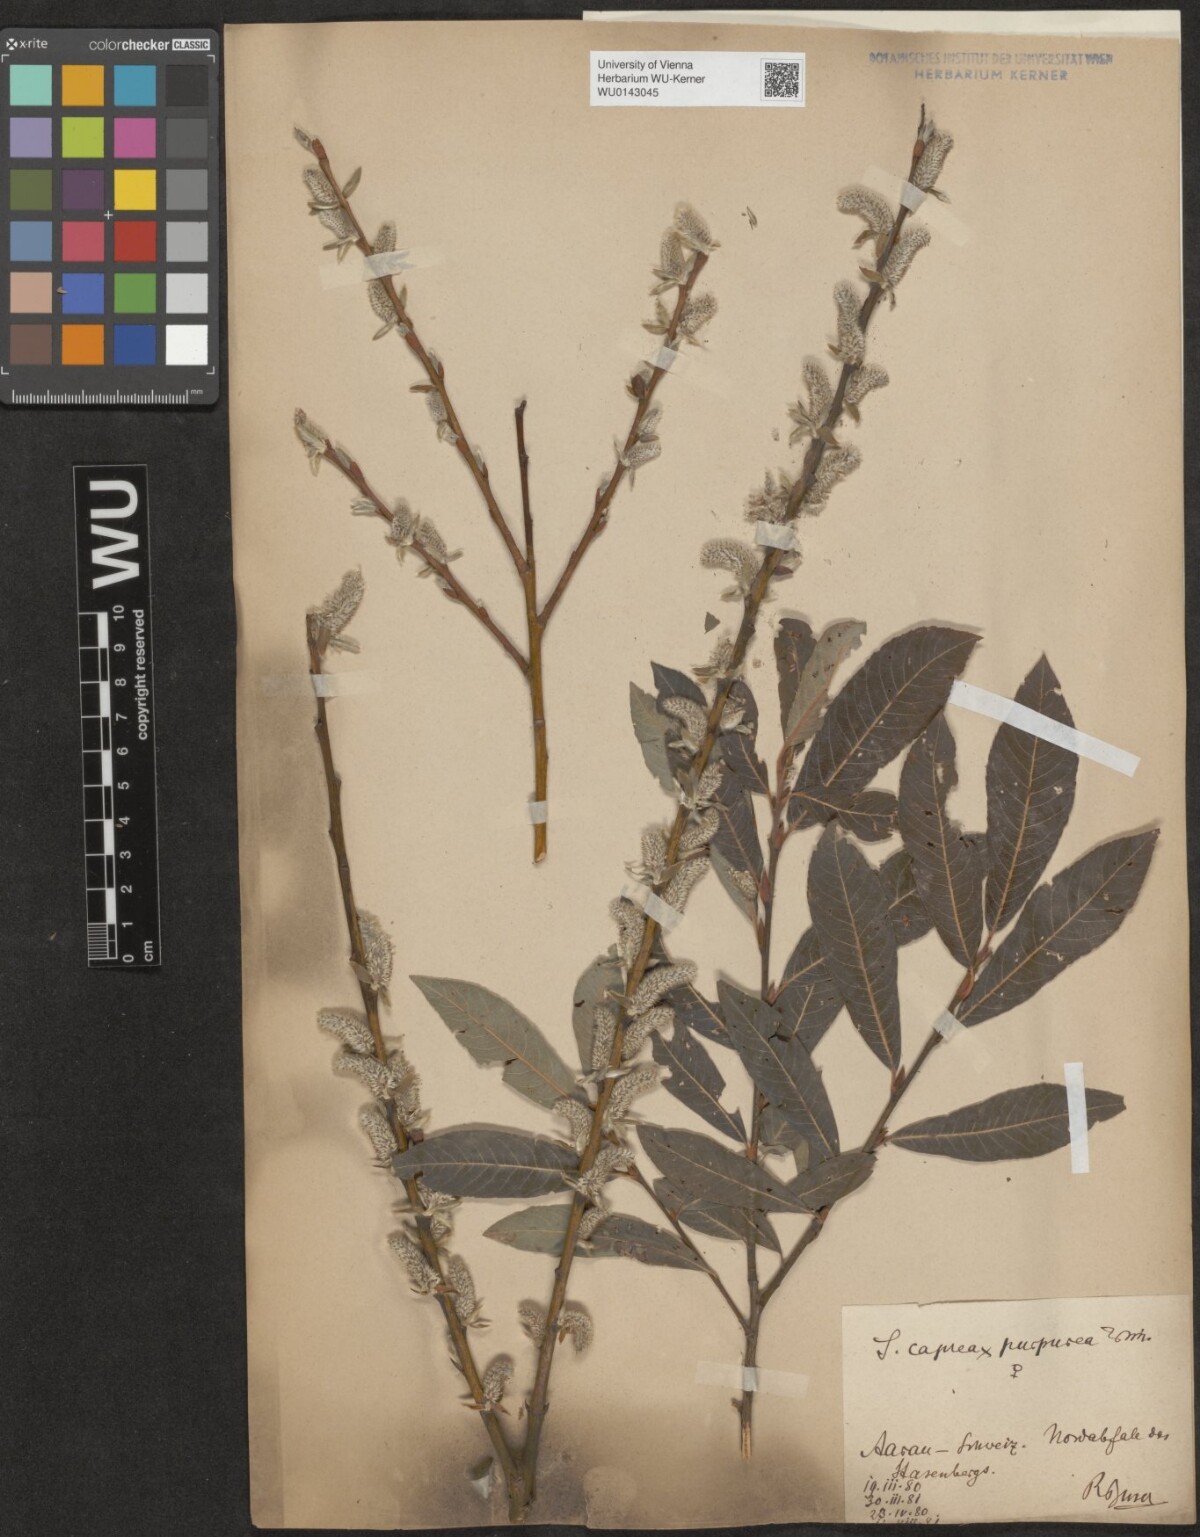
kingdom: Plantae
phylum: Tracheophyta
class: Magnoliopsida
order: Malpighiales
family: Salicaceae
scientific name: Salicaceae
